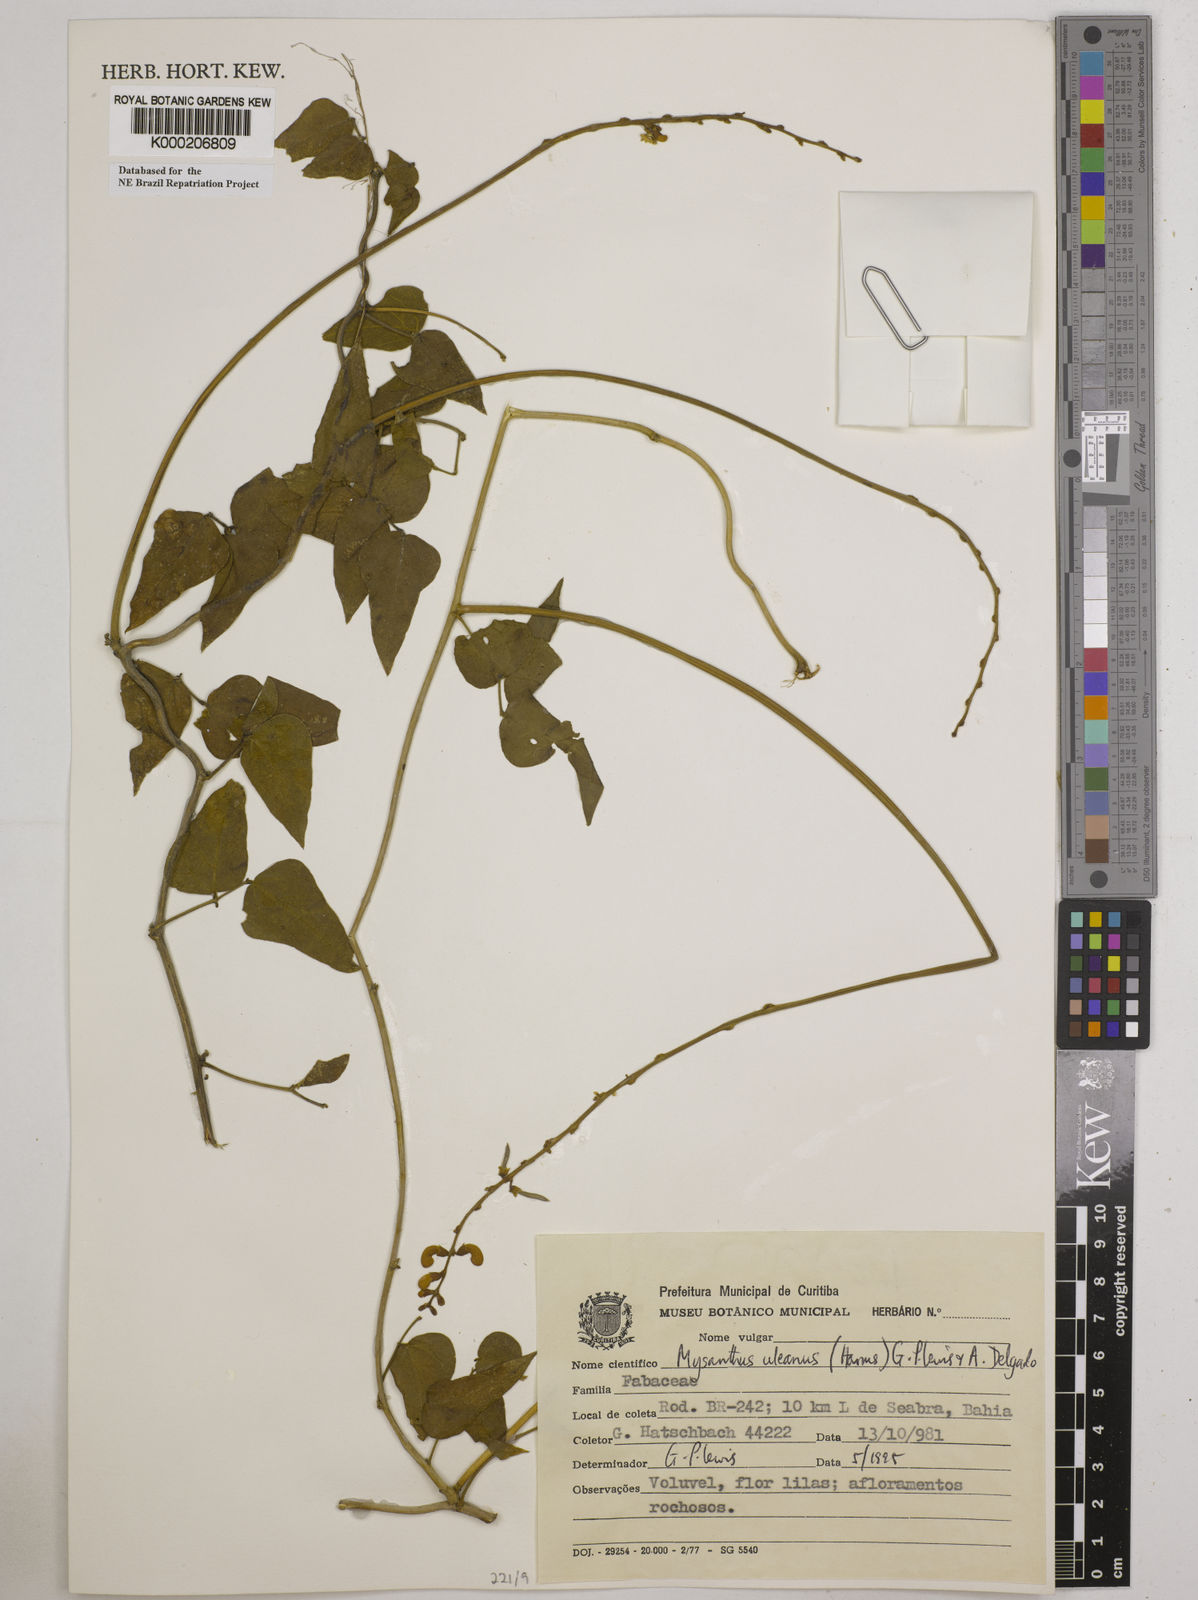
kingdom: Plantae
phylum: Tracheophyta
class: Magnoliopsida
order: Fabales
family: Fabaceae
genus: Mysanthus
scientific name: Mysanthus uleanus
